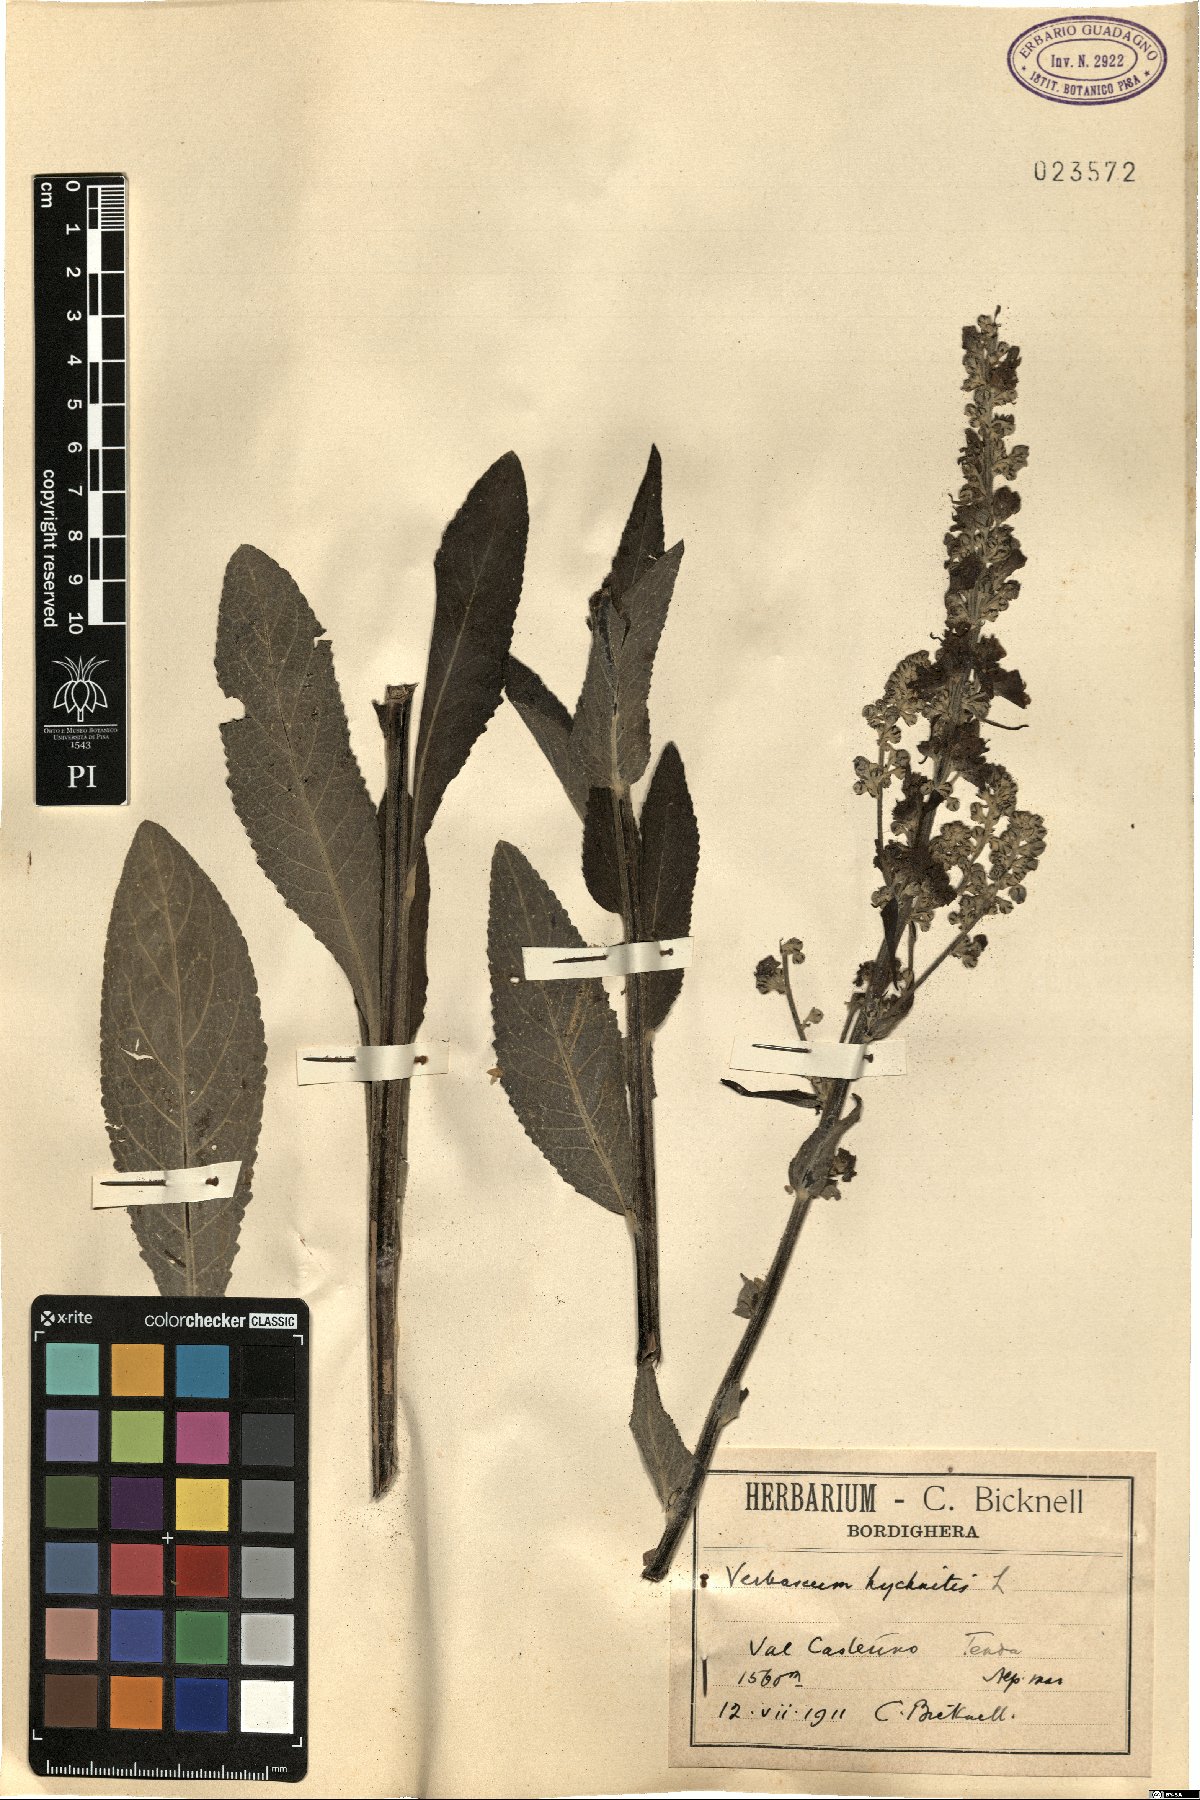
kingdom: Plantae
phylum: Tracheophyta
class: Magnoliopsida
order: Lamiales
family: Scrophulariaceae
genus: Verbascum
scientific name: Verbascum lychnitis
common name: White mullein
